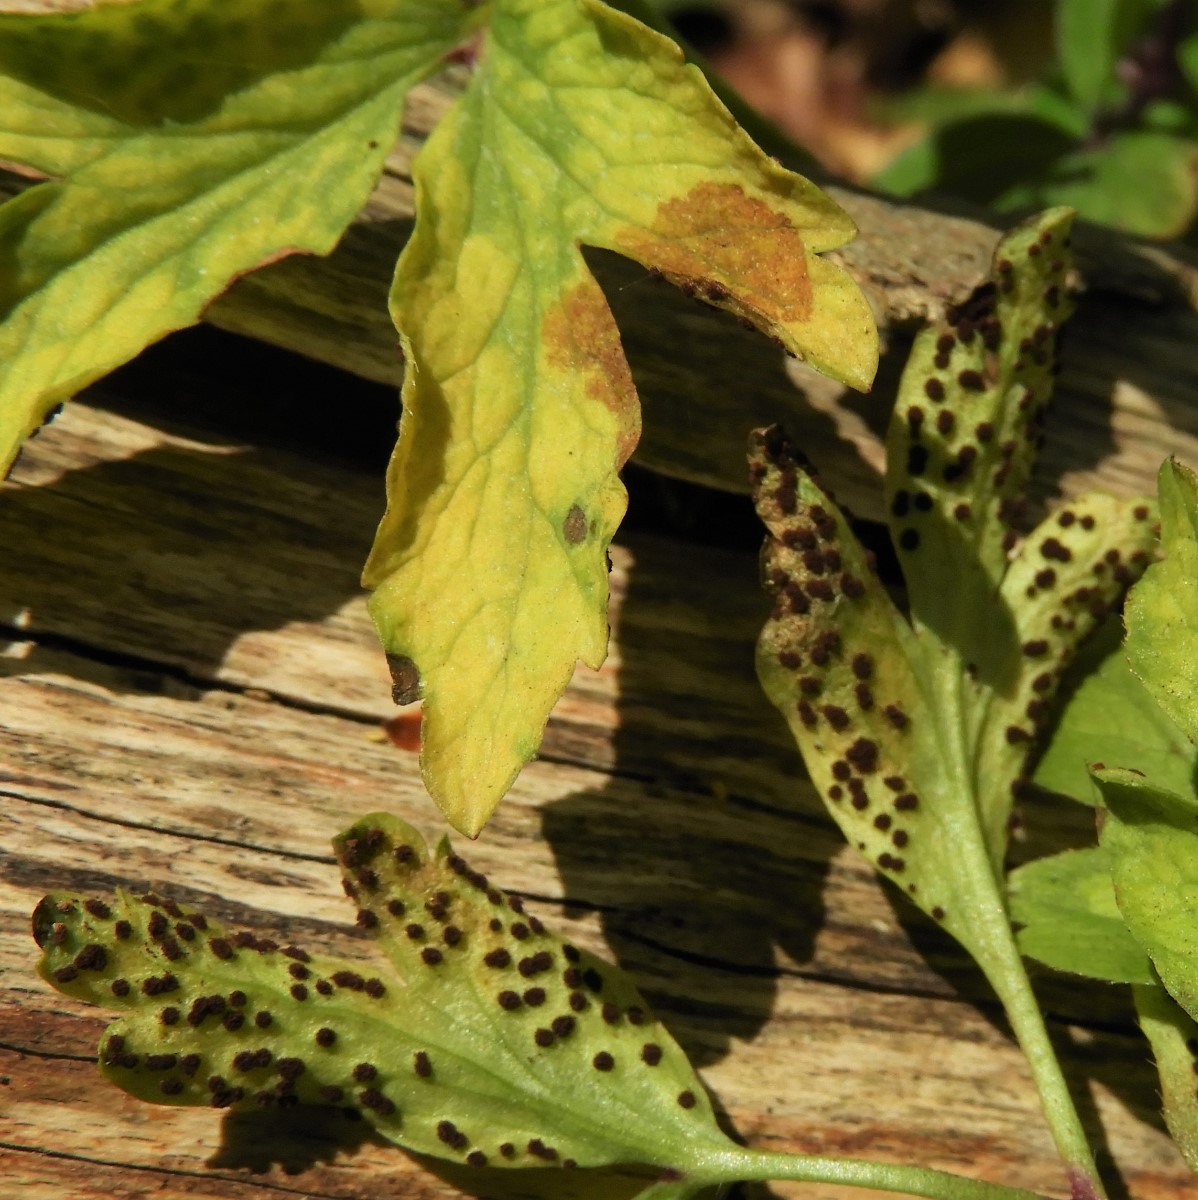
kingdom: Fungi
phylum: Basidiomycota
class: Pucciniomycetes
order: Pucciniales
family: Tranzscheliaceae
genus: Tranzschelia
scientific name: Tranzschelia anemones
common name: anemone-knæksporerust
